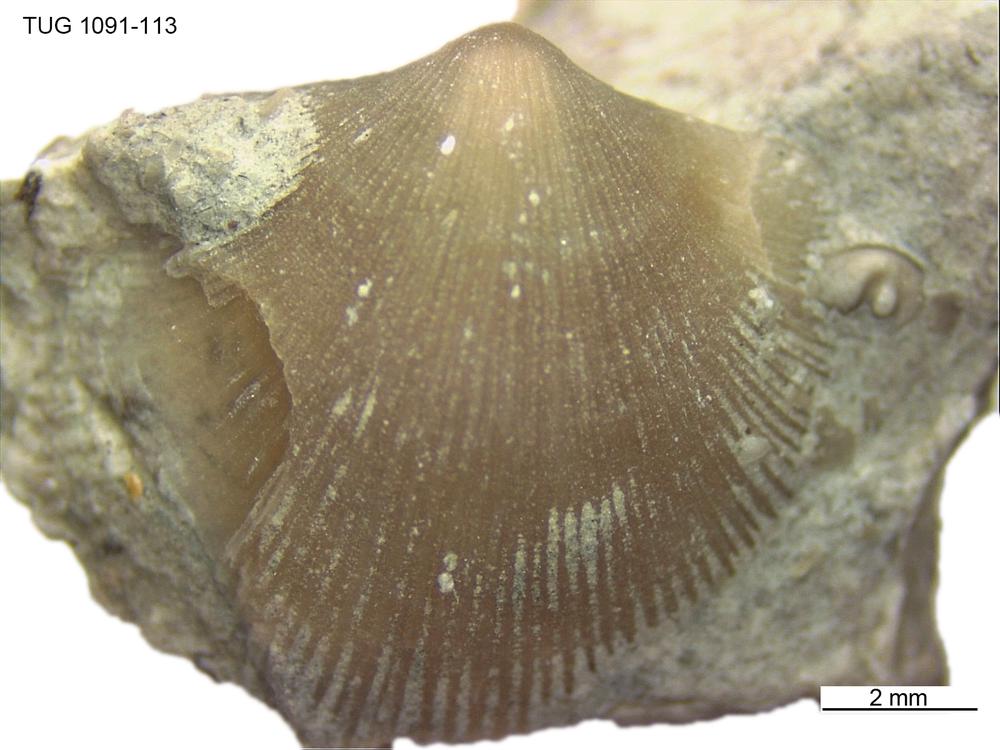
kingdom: Animalia
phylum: Brachiopoda
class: Rhynchonellata
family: Dalmanellidae
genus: Visbyella
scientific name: Visbyella
